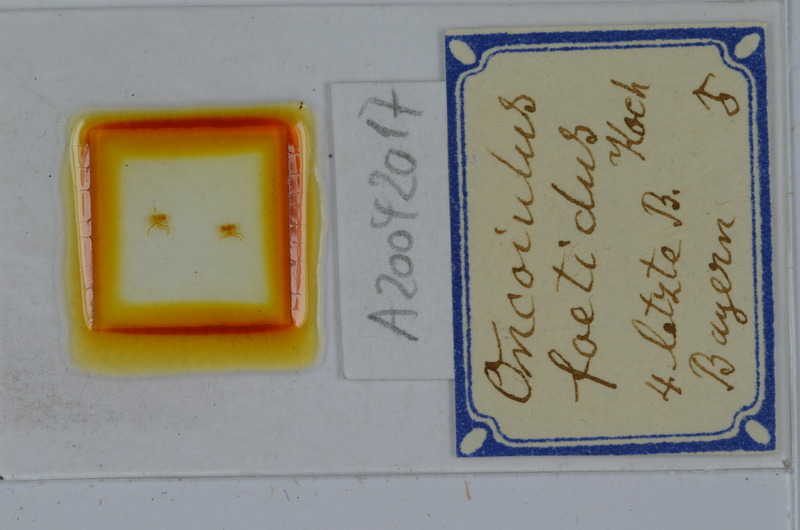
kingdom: Animalia
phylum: Arthropoda
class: Diplopoda
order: Julida
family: Julidae
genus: Unciger
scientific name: Unciger foetidus
